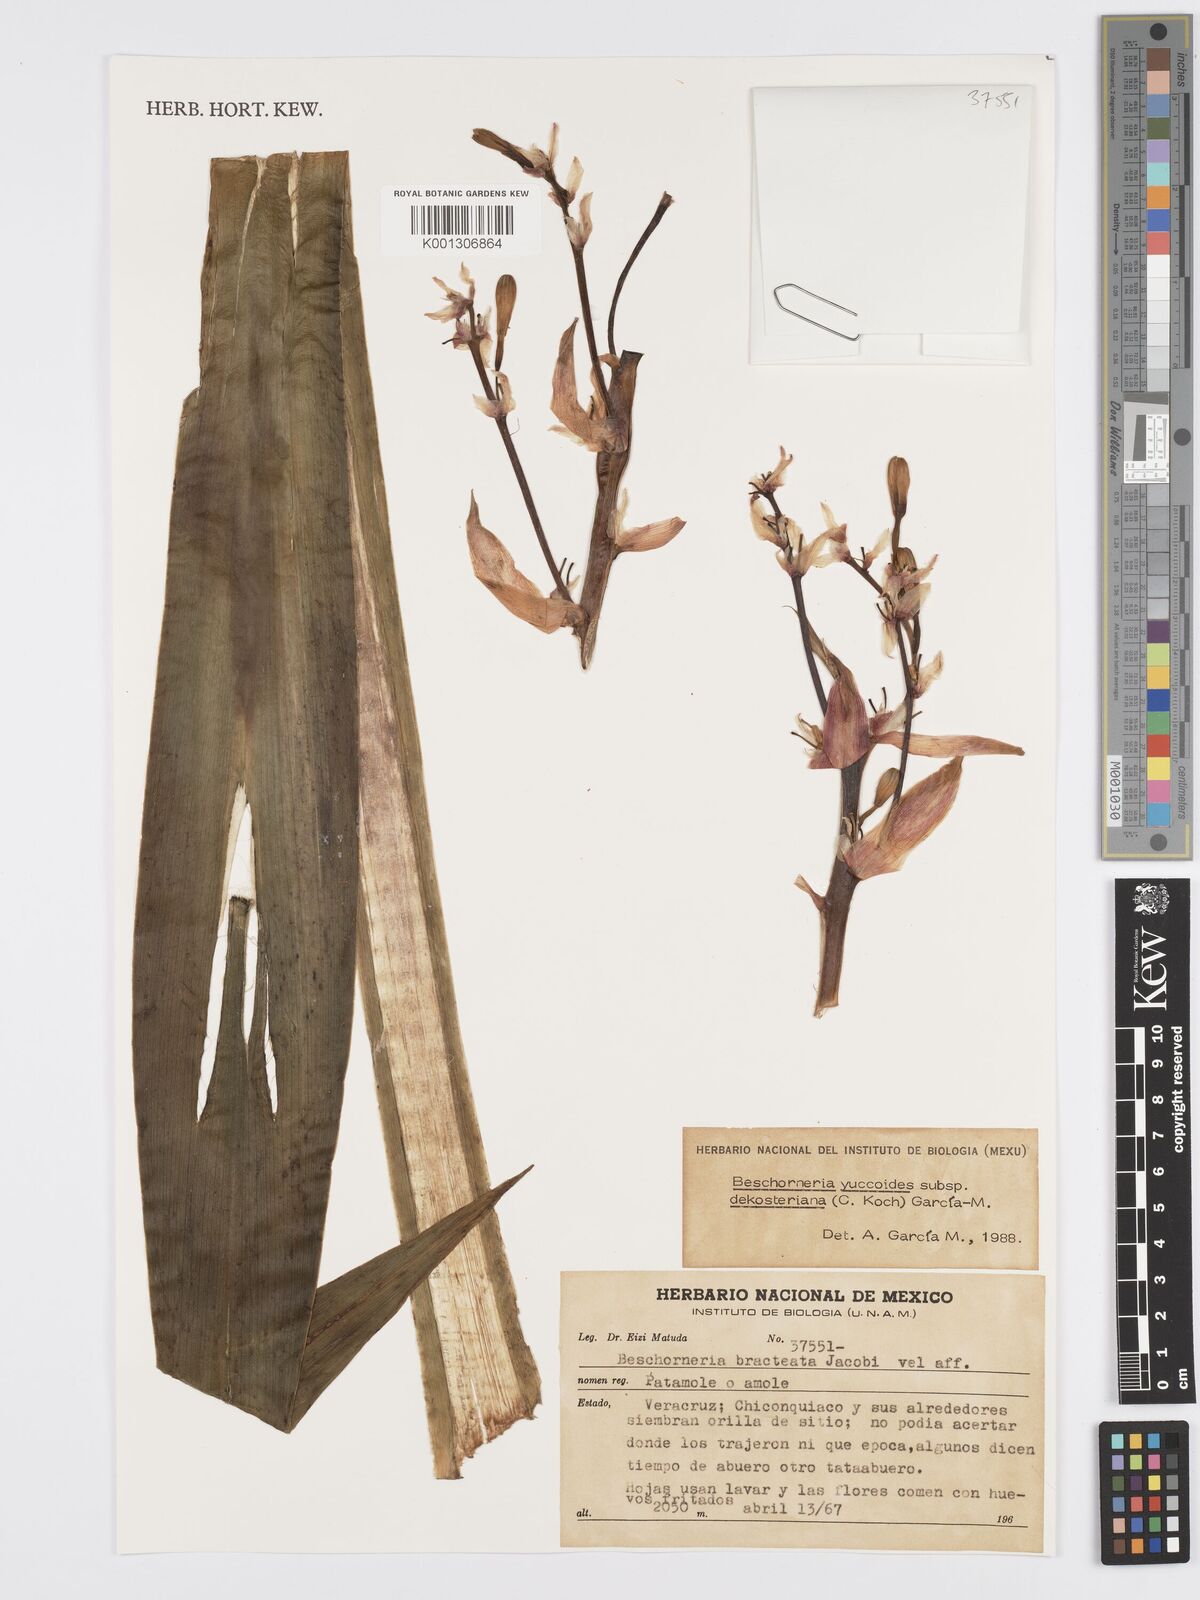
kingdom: Plantae
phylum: Tracheophyta
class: Liliopsida
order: Asparagales
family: Asparagaceae
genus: Beschorneria
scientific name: Beschorneria yuccoides
